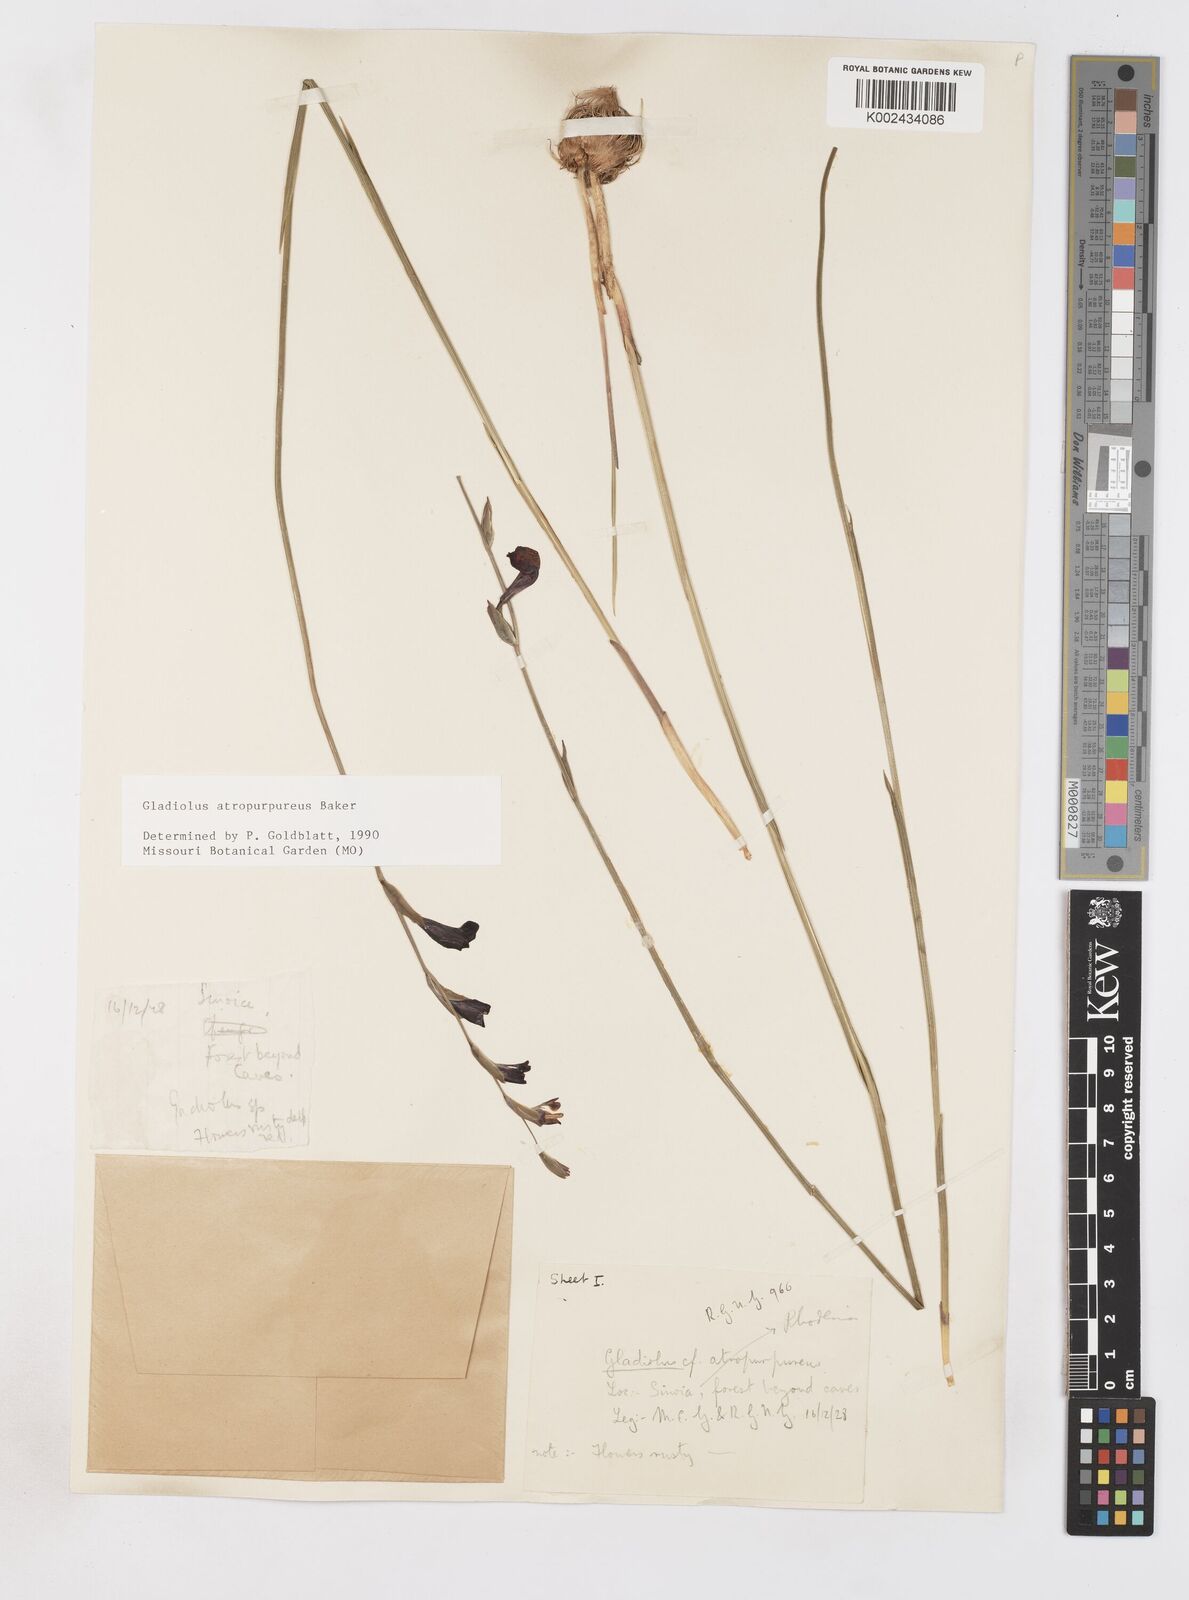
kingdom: Plantae
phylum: Tracheophyta
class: Liliopsida
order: Asparagales
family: Iridaceae
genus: Gladiolus
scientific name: Gladiolus atropurpureus
